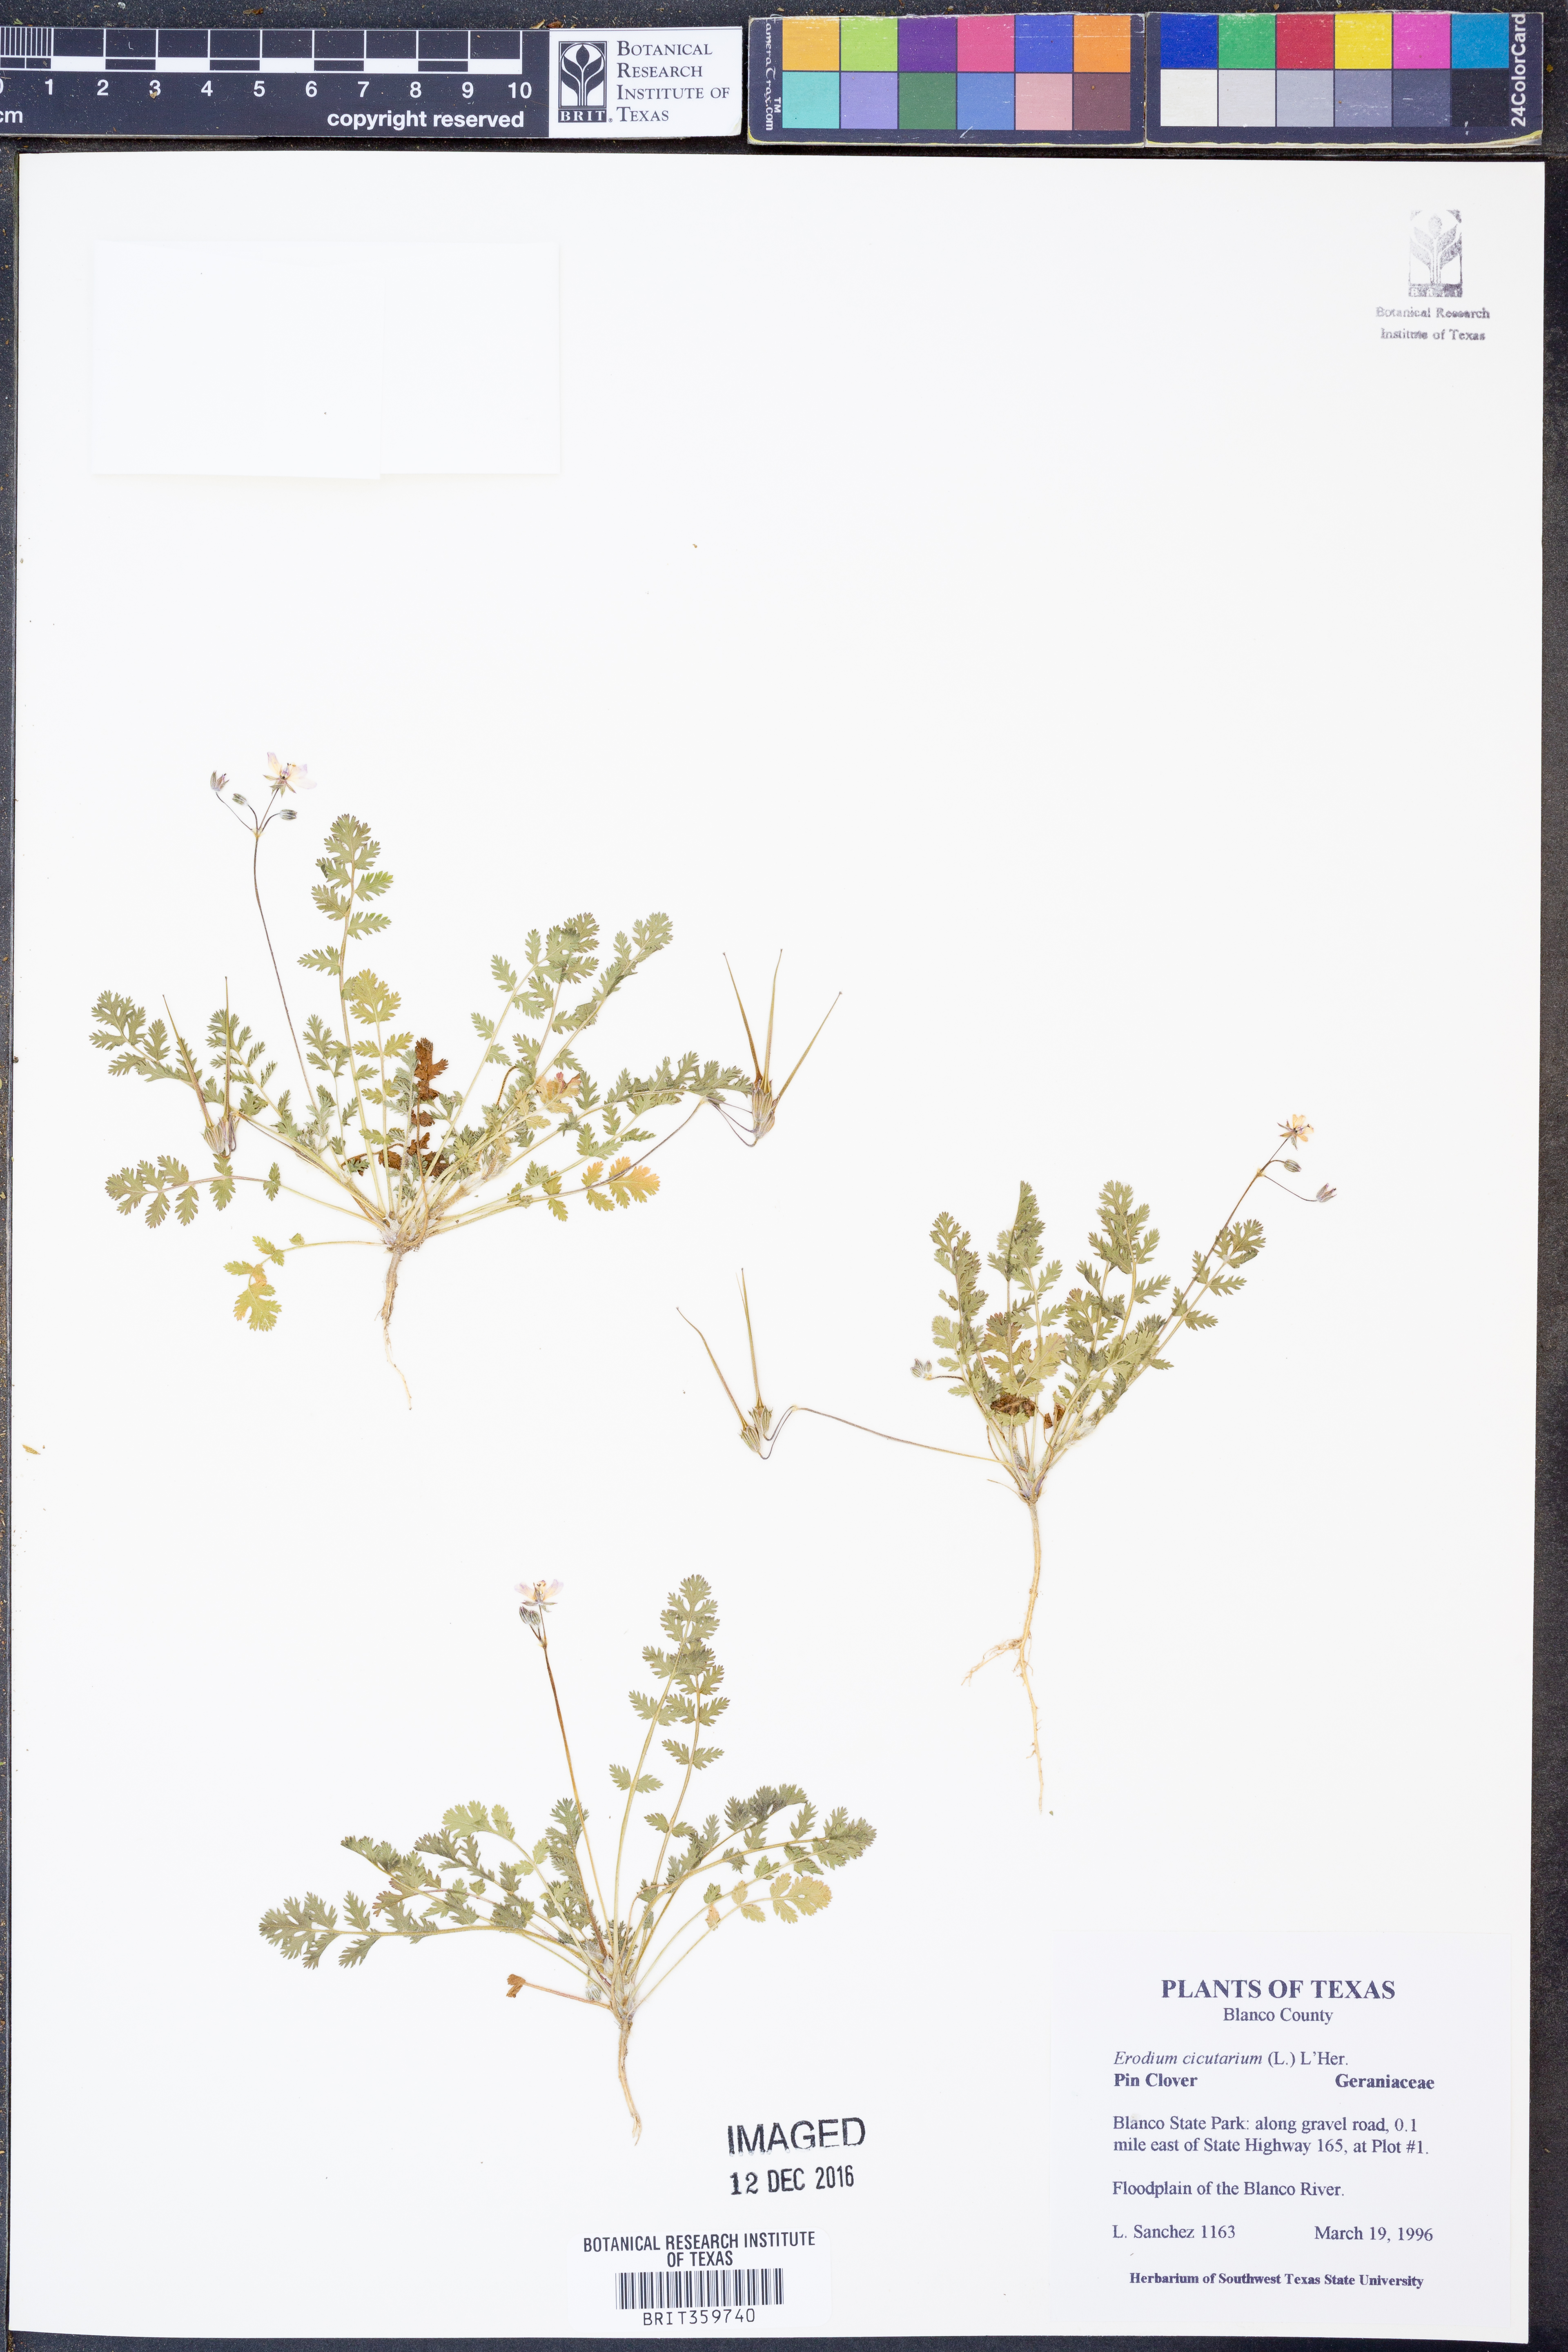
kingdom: Plantae
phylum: Tracheophyta
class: Magnoliopsida
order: Geraniales
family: Geraniaceae
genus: Erodium
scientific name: Erodium cicutarium
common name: Common stork's-bill
